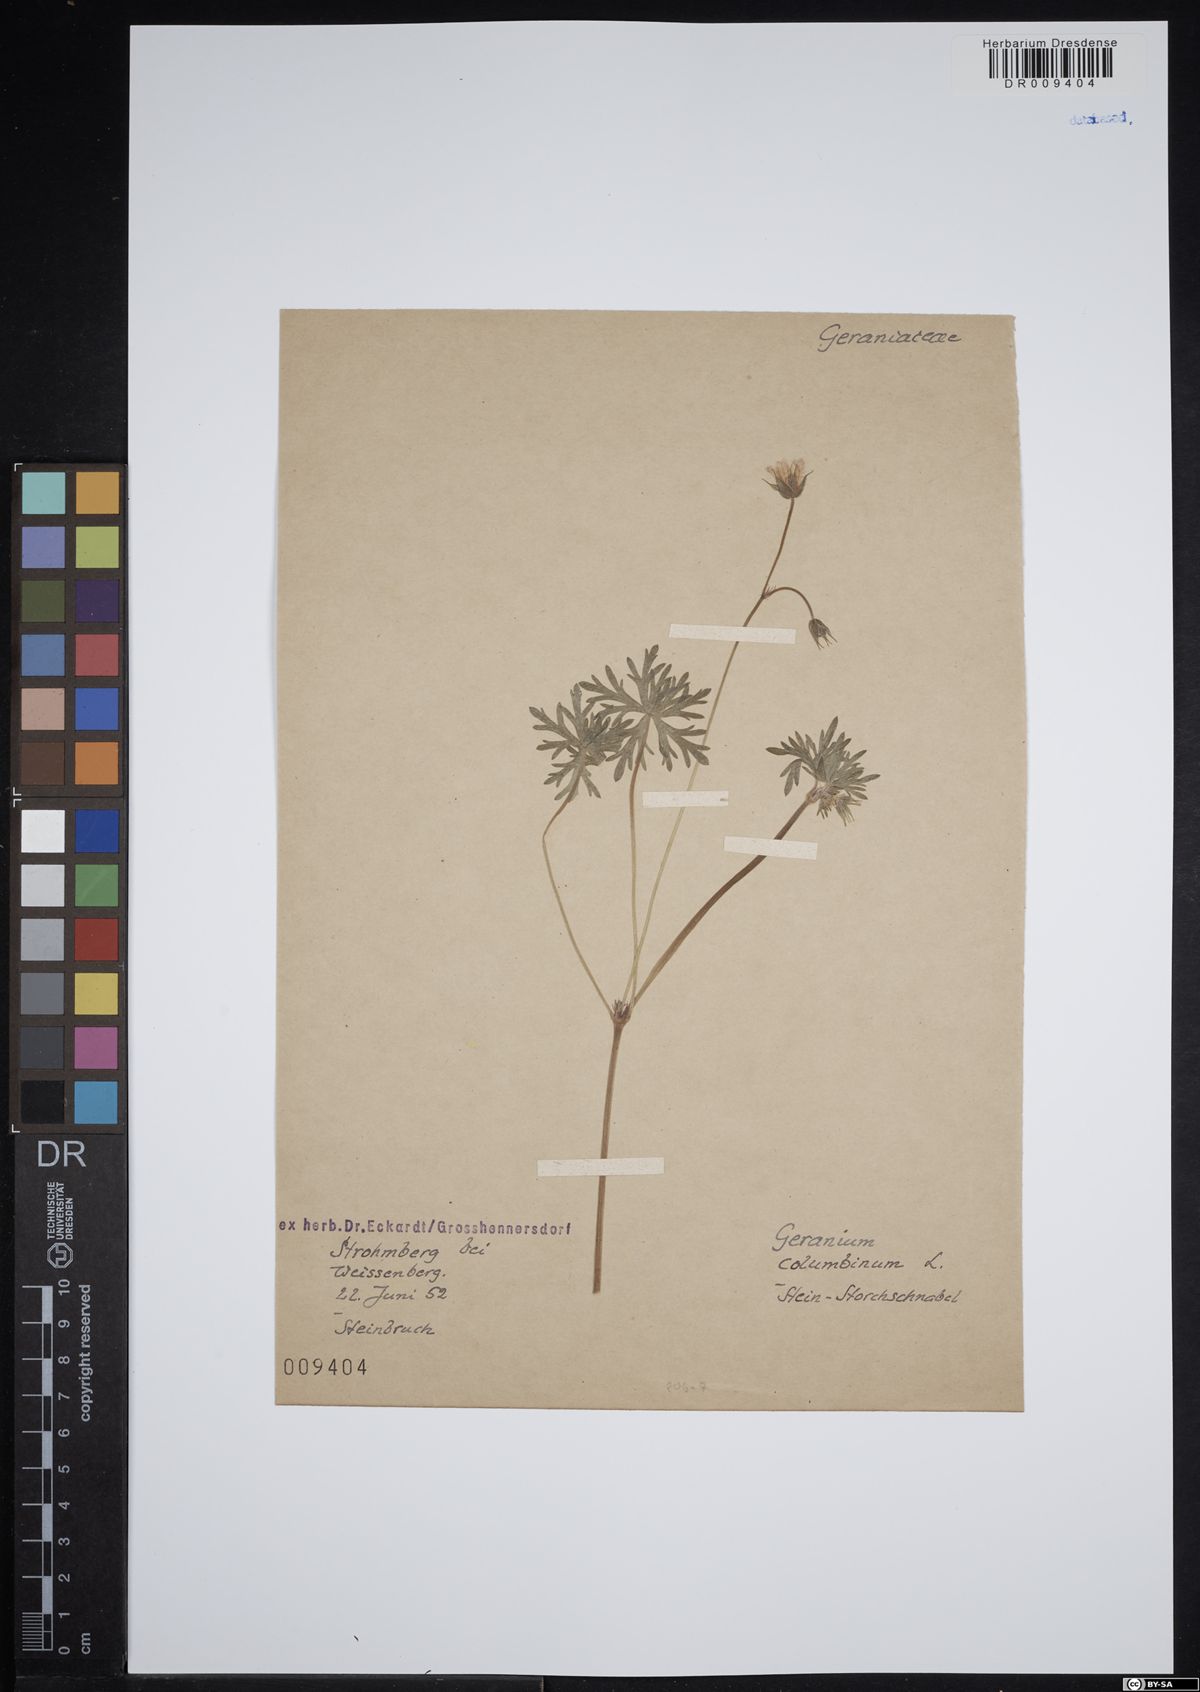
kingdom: Plantae
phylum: Tracheophyta
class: Magnoliopsida
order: Geraniales
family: Geraniaceae
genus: Geranium
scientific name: Geranium columbinum
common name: Long-stalked crane's-bill
